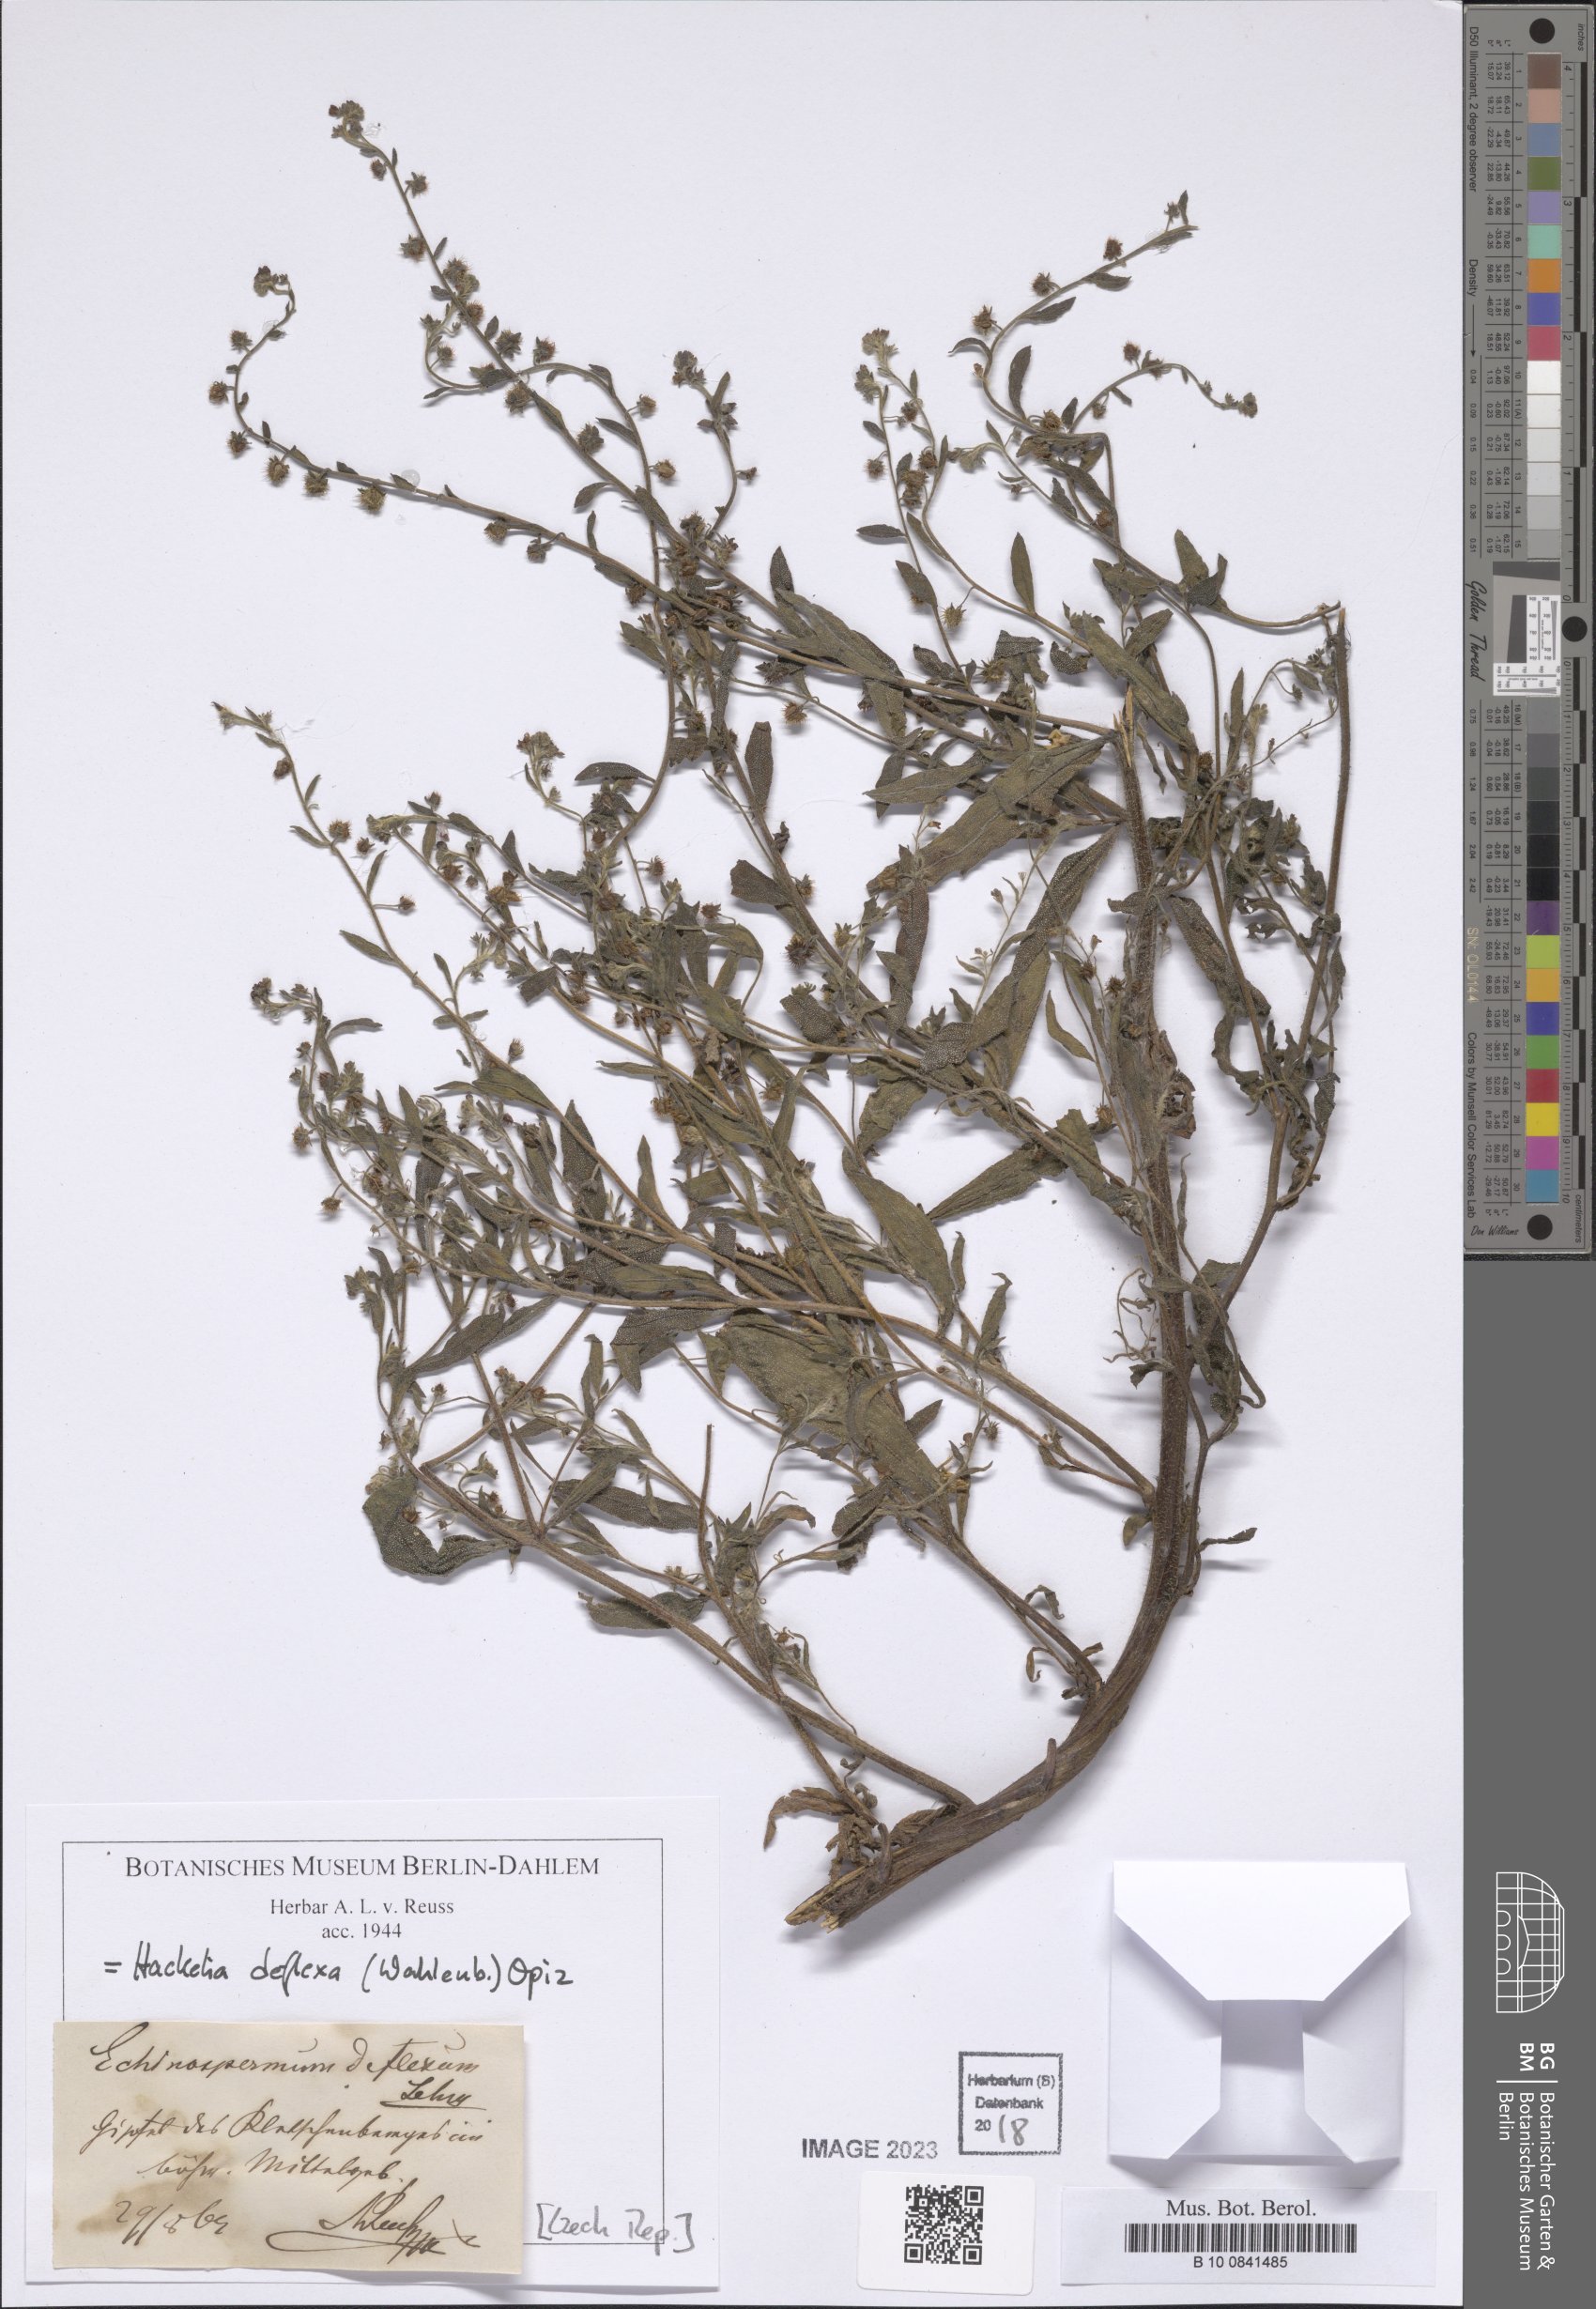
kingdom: Plantae
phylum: Tracheophyta
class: Magnoliopsida
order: Boraginales
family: Boraginaceae
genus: Hackelia
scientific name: Hackelia deflexa
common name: Nodding stickseed
